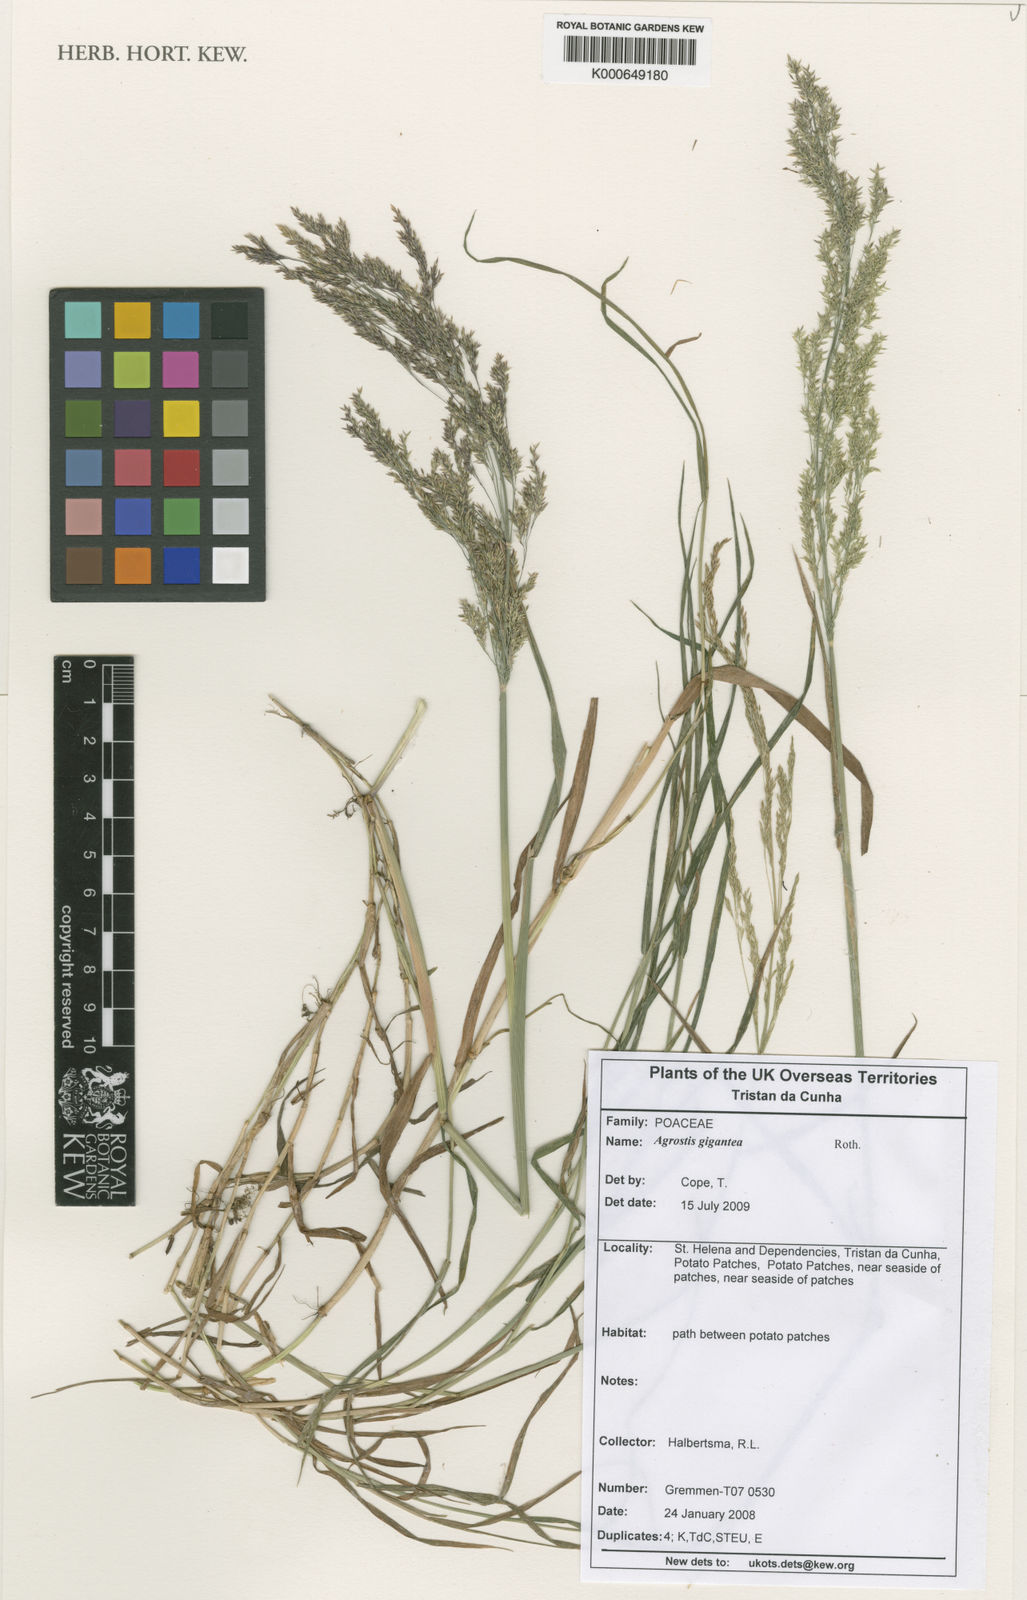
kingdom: Plantae
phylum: Tracheophyta
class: Liliopsida
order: Poales
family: Poaceae
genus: Agrostis
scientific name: Agrostis gigantea
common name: Black bent
